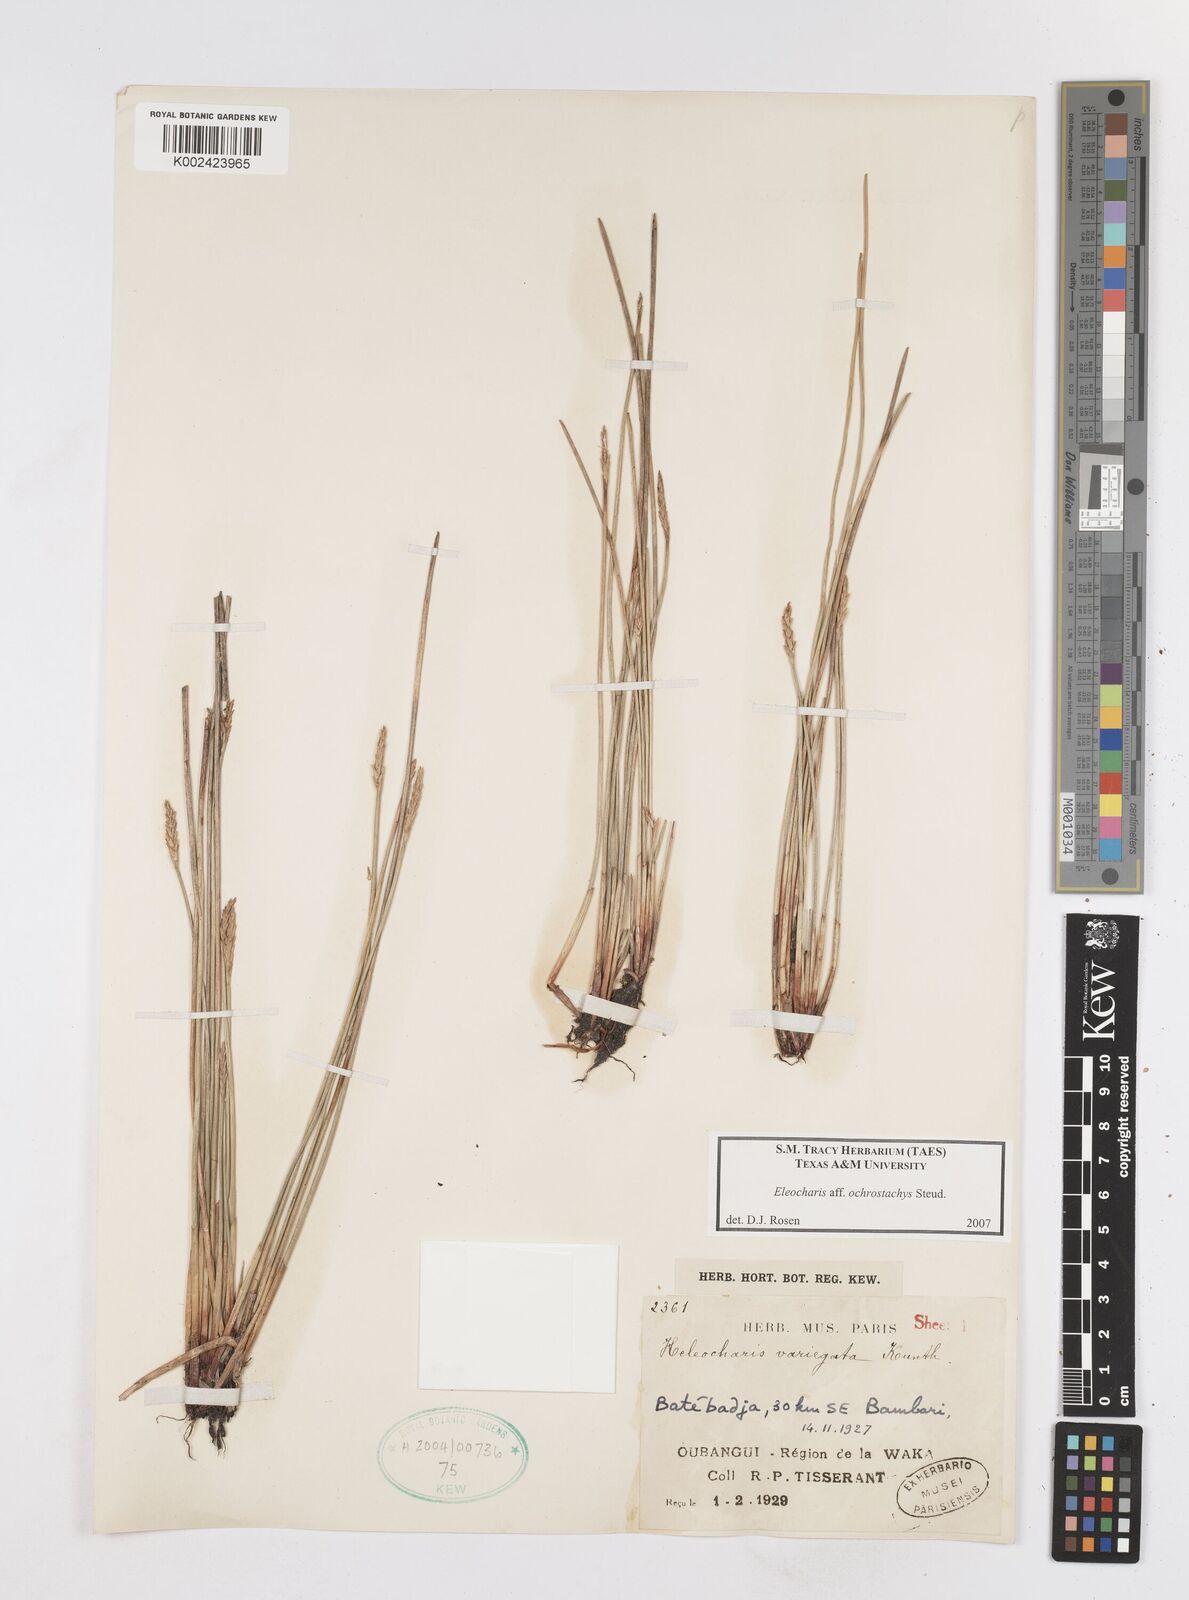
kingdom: Plantae
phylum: Tracheophyta
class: Liliopsida
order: Poales
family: Cyperaceae
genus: Eleocharis
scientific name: Eleocharis ochrostachys
